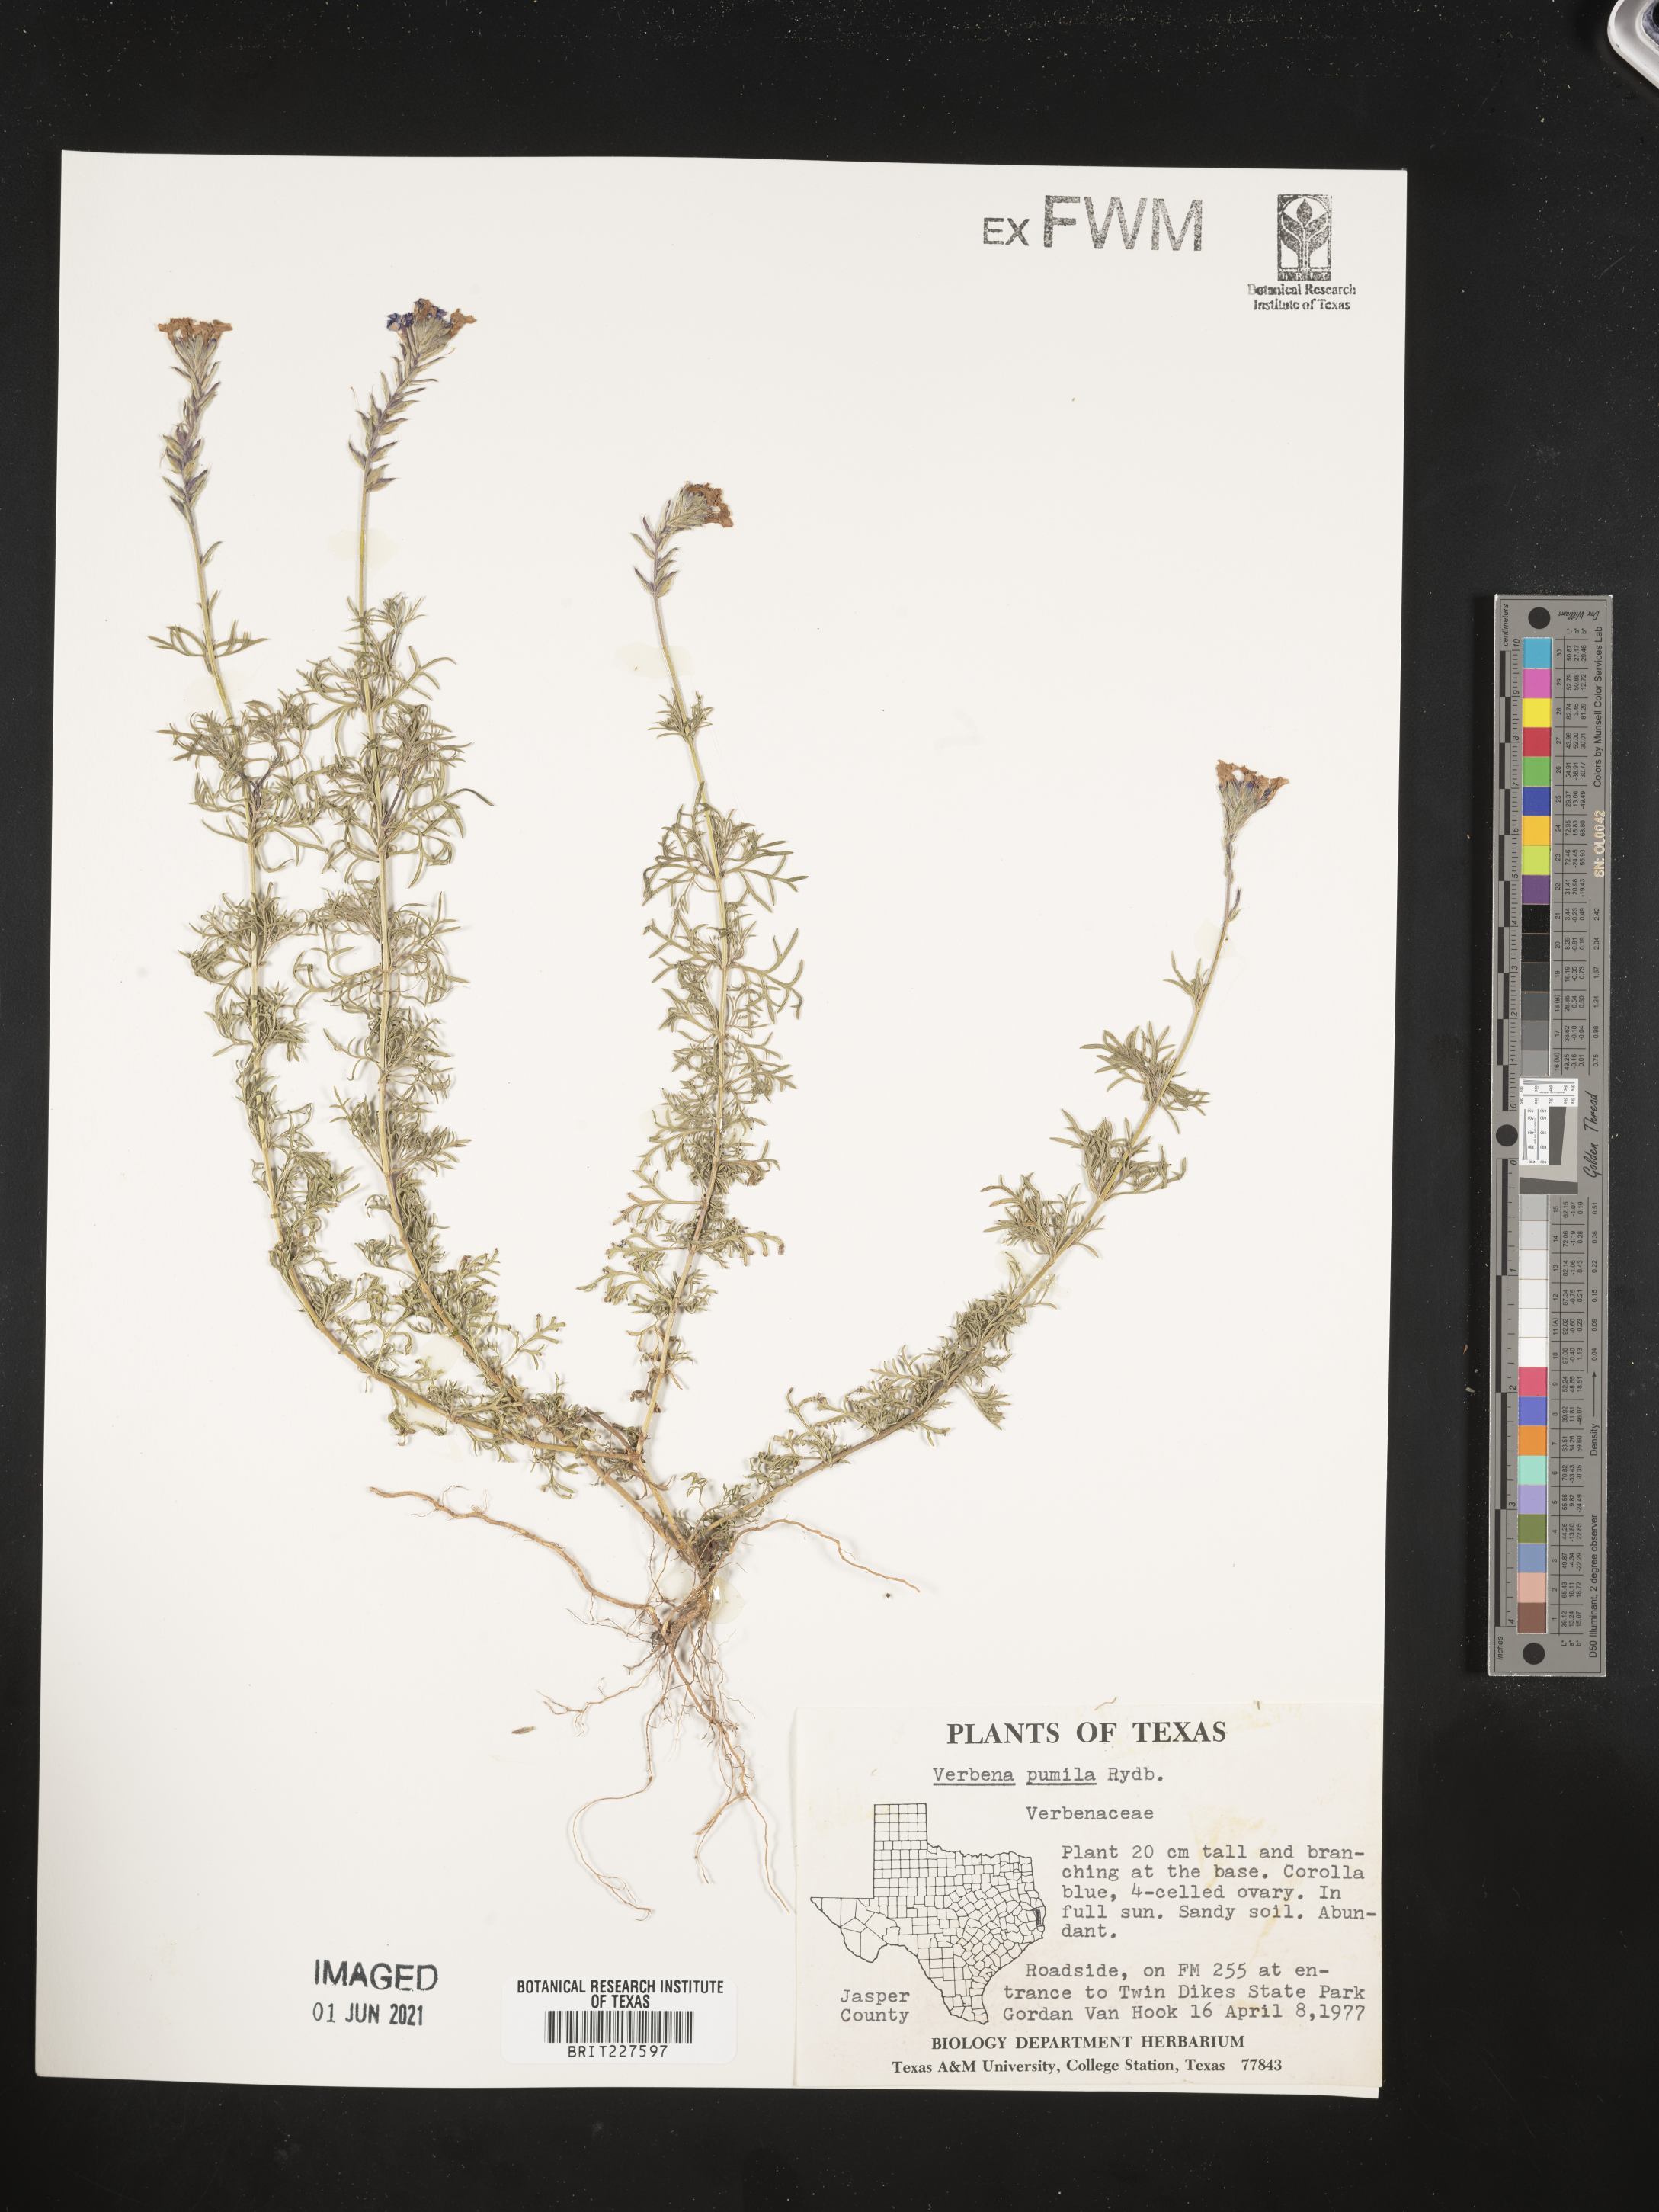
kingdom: Plantae
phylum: Tracheophyta
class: Magnoliopsida
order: Lamiales
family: Verbenaceae
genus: Verbena
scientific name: Verbena pumila
